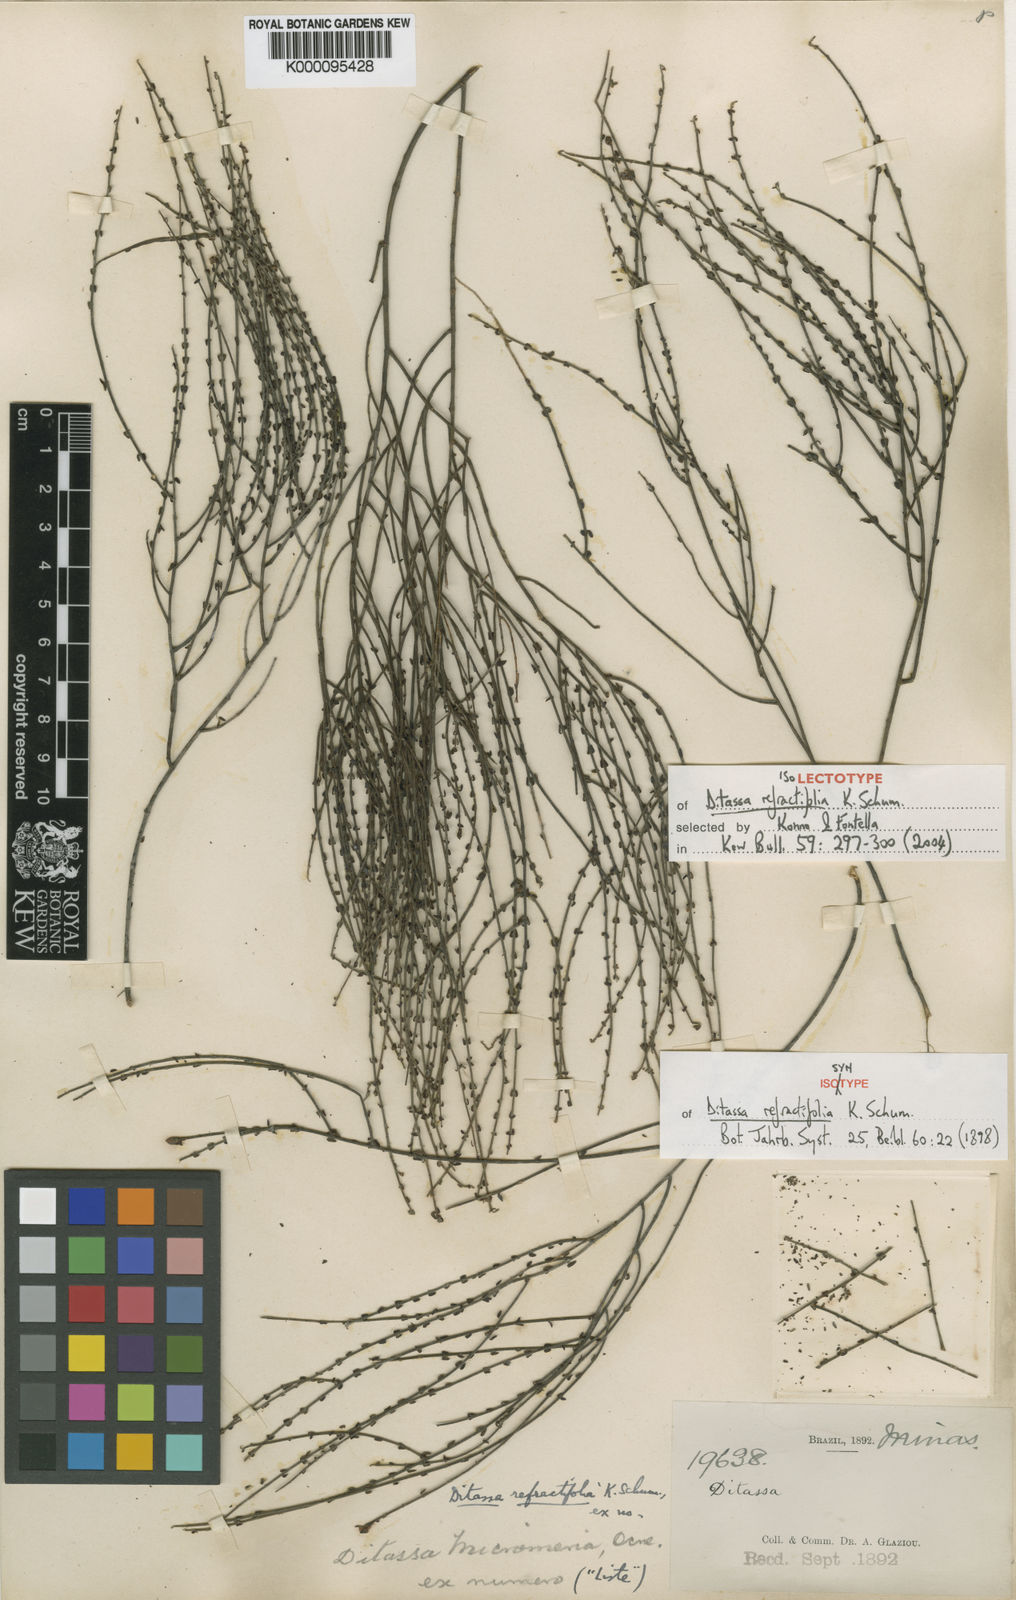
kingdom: Plantae
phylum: Tracheophyta
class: Magnoliopsida
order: Gentianales
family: Apocynaceae
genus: Minaria
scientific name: Minaria refractifolia
